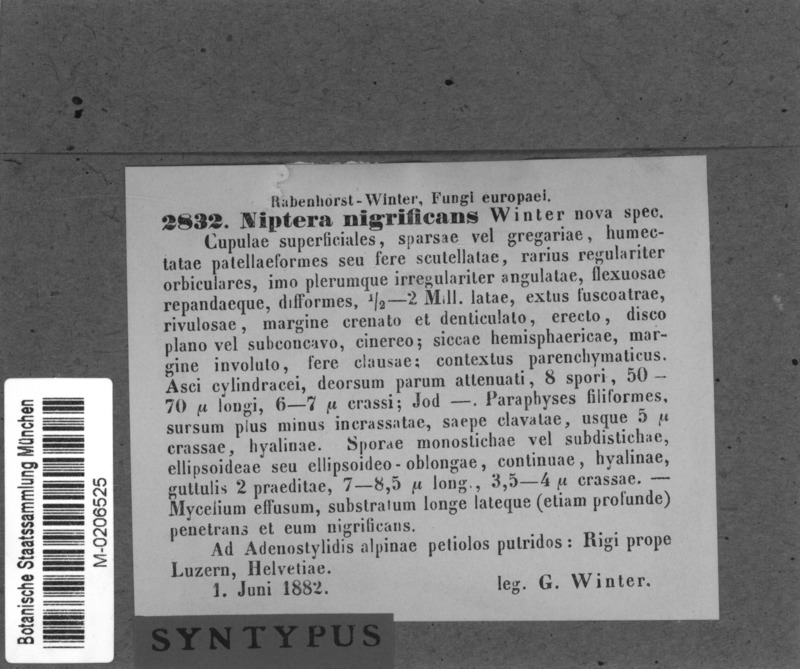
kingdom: Fungi
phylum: Ascomycota
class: Leotiomycetes
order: Helotiales
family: Mollisiaceae
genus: Tapesia
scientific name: Tapesia nigrificans
